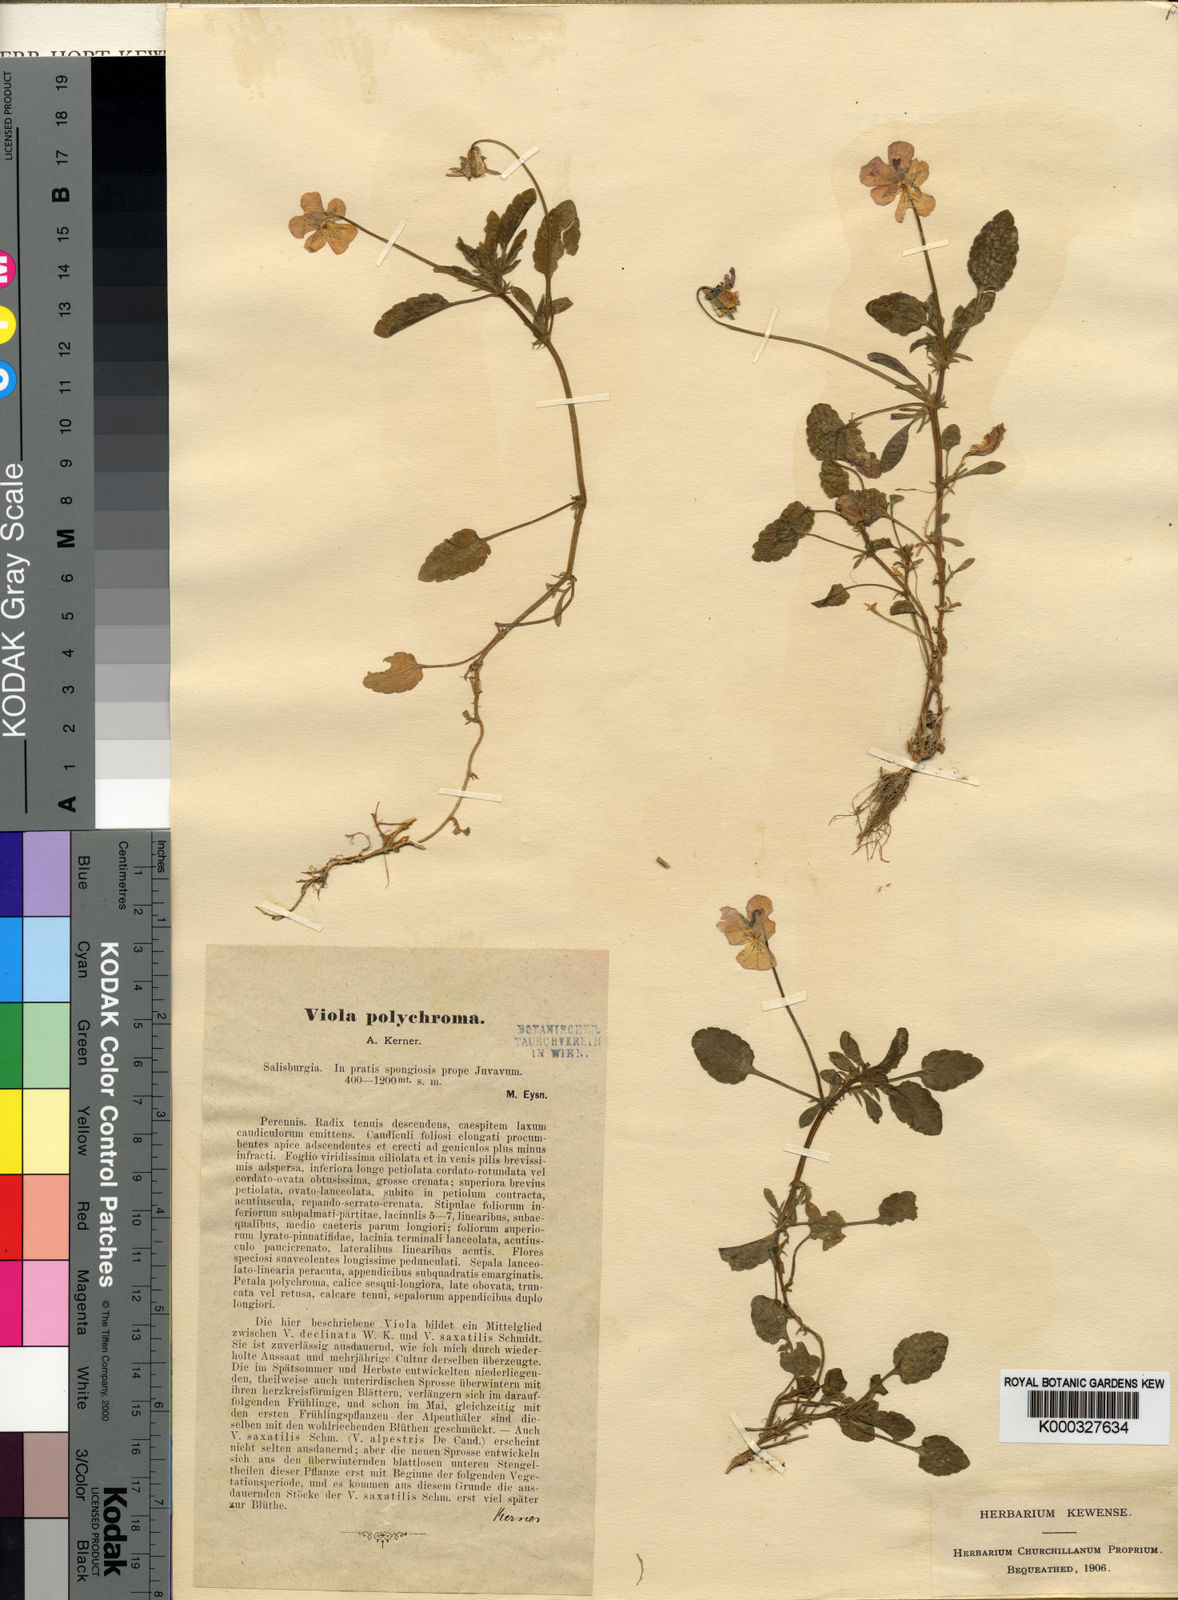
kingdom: Plantae
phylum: Tracheophyta
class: Magnoliopsida
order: Malpighiales
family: Violaceae
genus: Viola
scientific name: Viola tricolor
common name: Pansy
